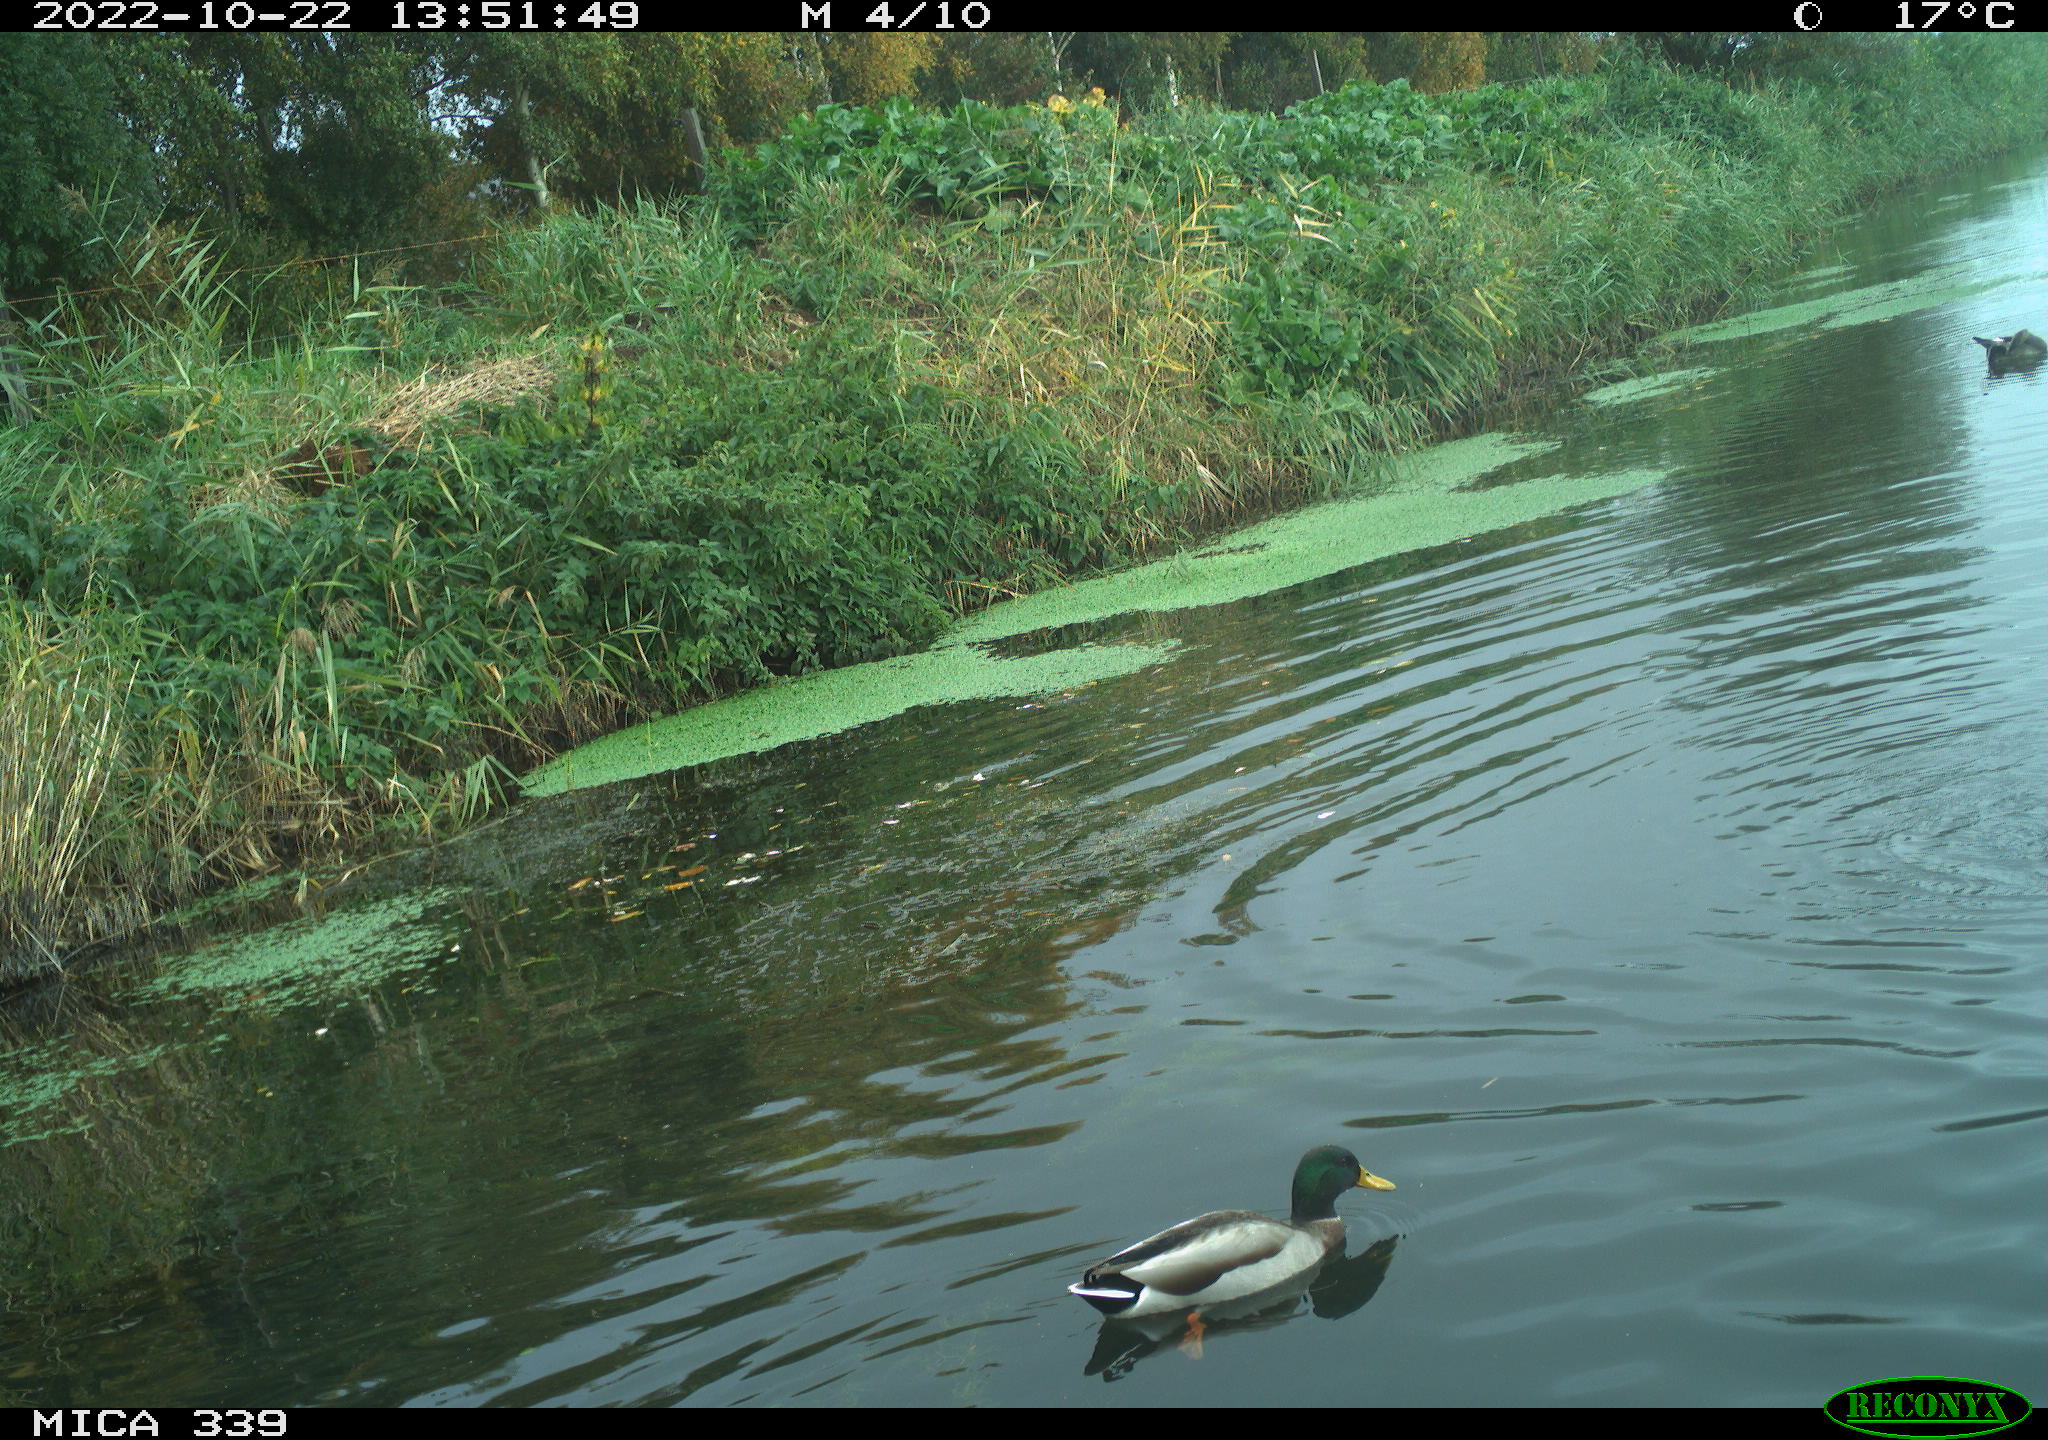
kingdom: Animalia
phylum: Chordata
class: Aves
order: Anseriformes
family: Anatidae
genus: Anas
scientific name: Anas platyrhynchos
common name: Mallard
